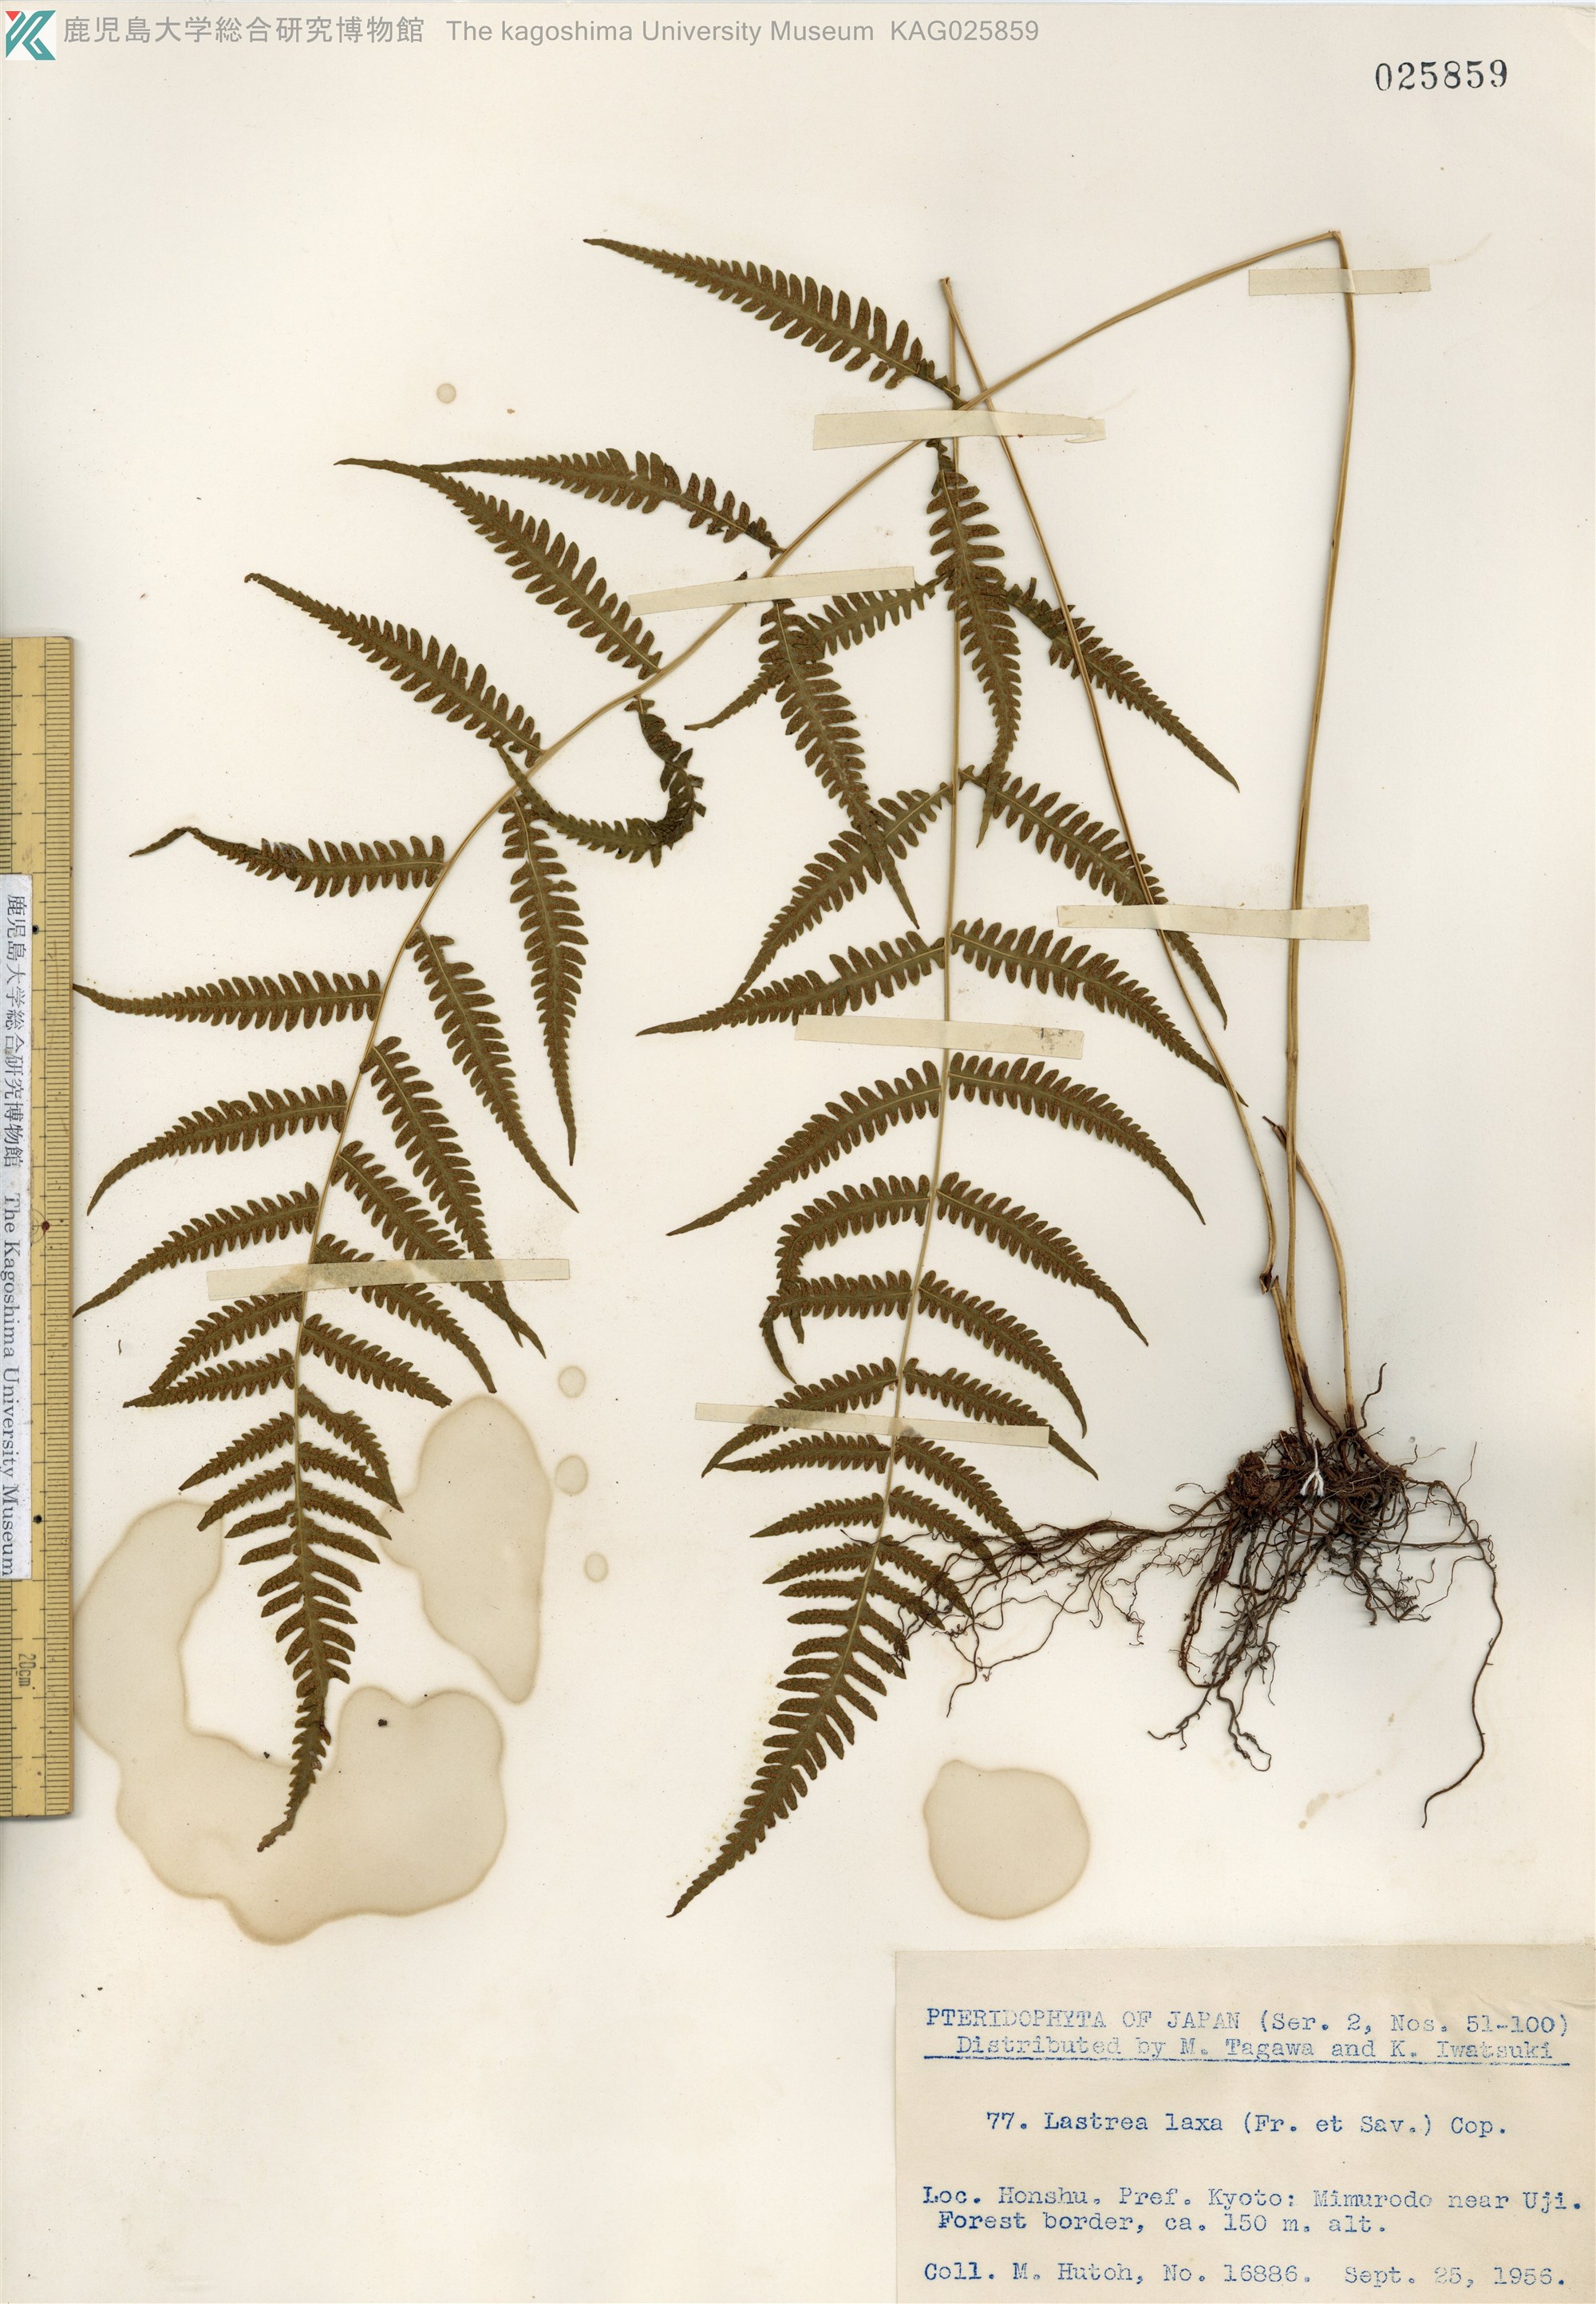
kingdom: Plantae
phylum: Tracheophyta
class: Polypodiopsida
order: Polypodiales
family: Thelypteridaceae
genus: Metathelypteris
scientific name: Metathelypteris laxa
